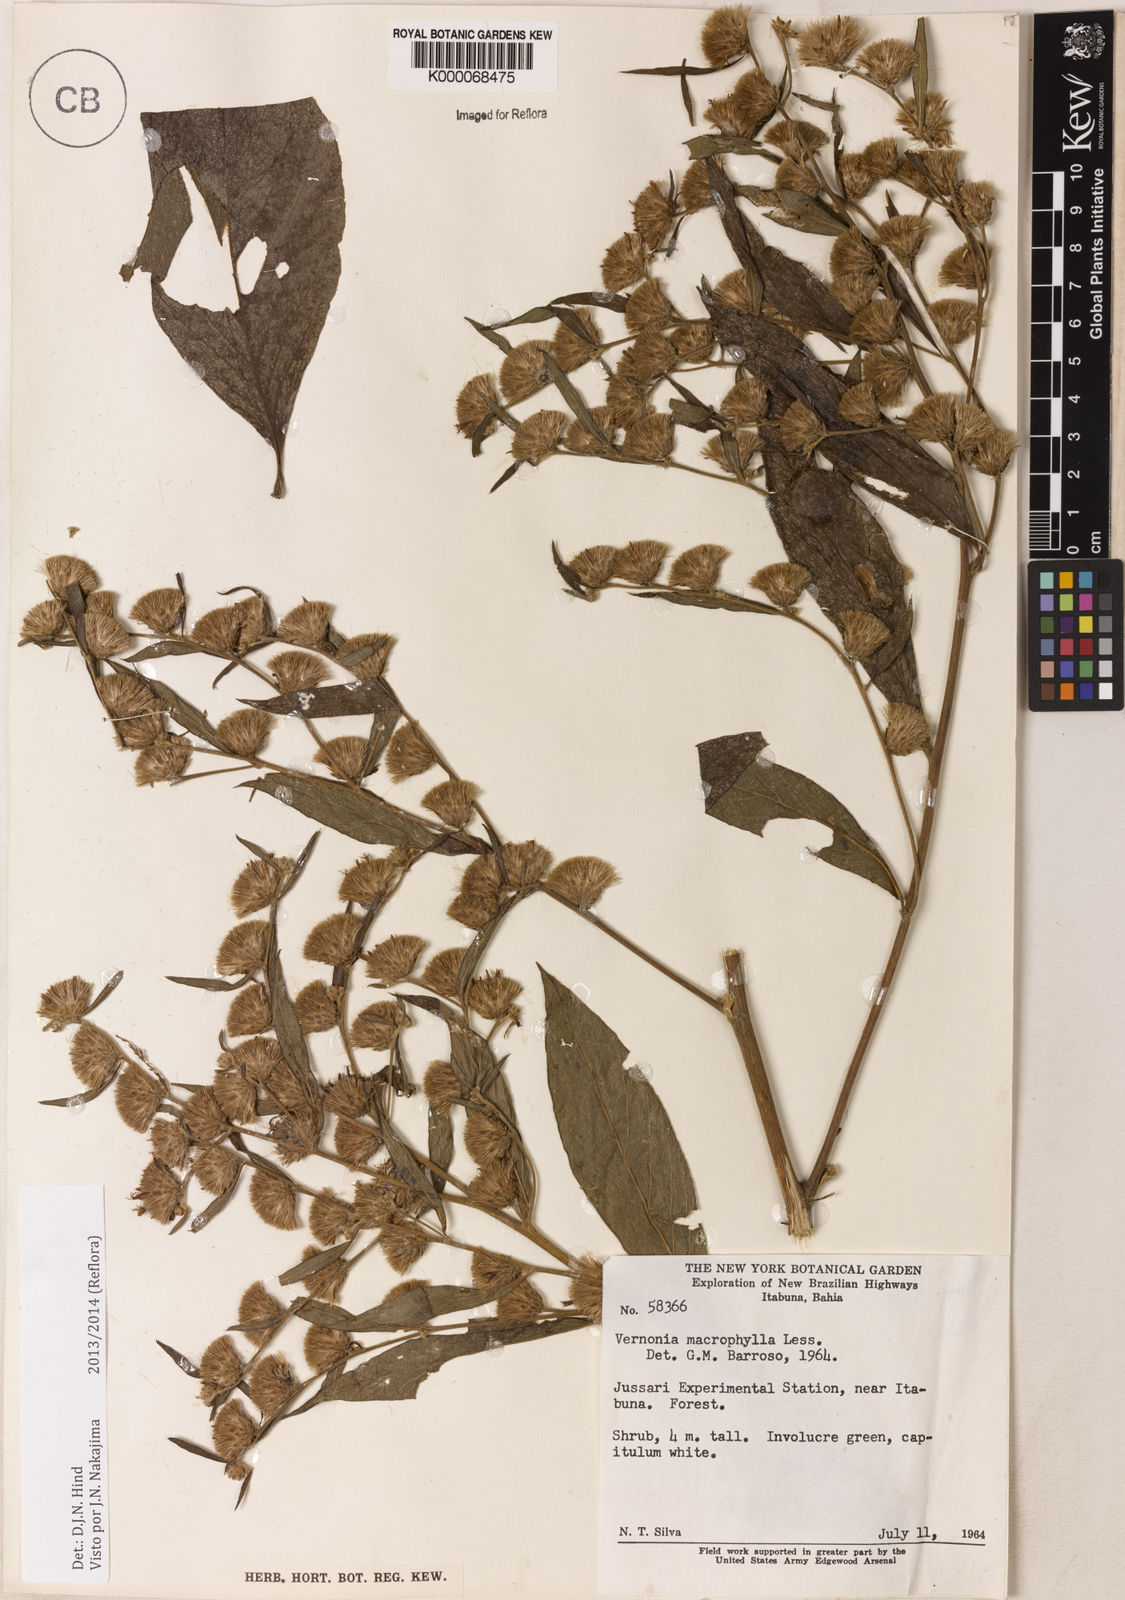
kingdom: Plantae
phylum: Tracheophyta
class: Magnoliopsida
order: Asterales
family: Asteraceae
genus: Lessingianthus
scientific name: Lessingianthus macrophyllus
